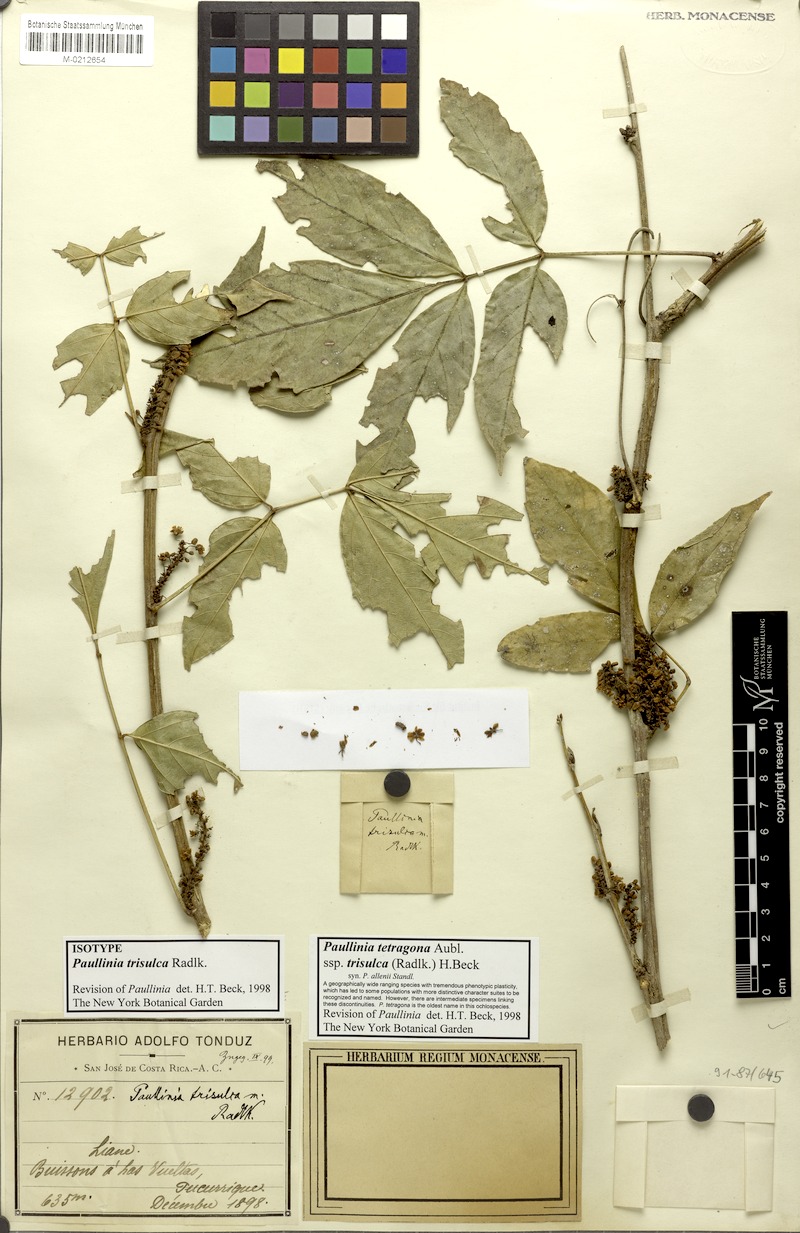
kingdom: Plantae
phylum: Tracheophyta
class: Magnoliopsida
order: Sapindales
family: Sapindaceae
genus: Paullinia
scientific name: Paullinia tetragona
